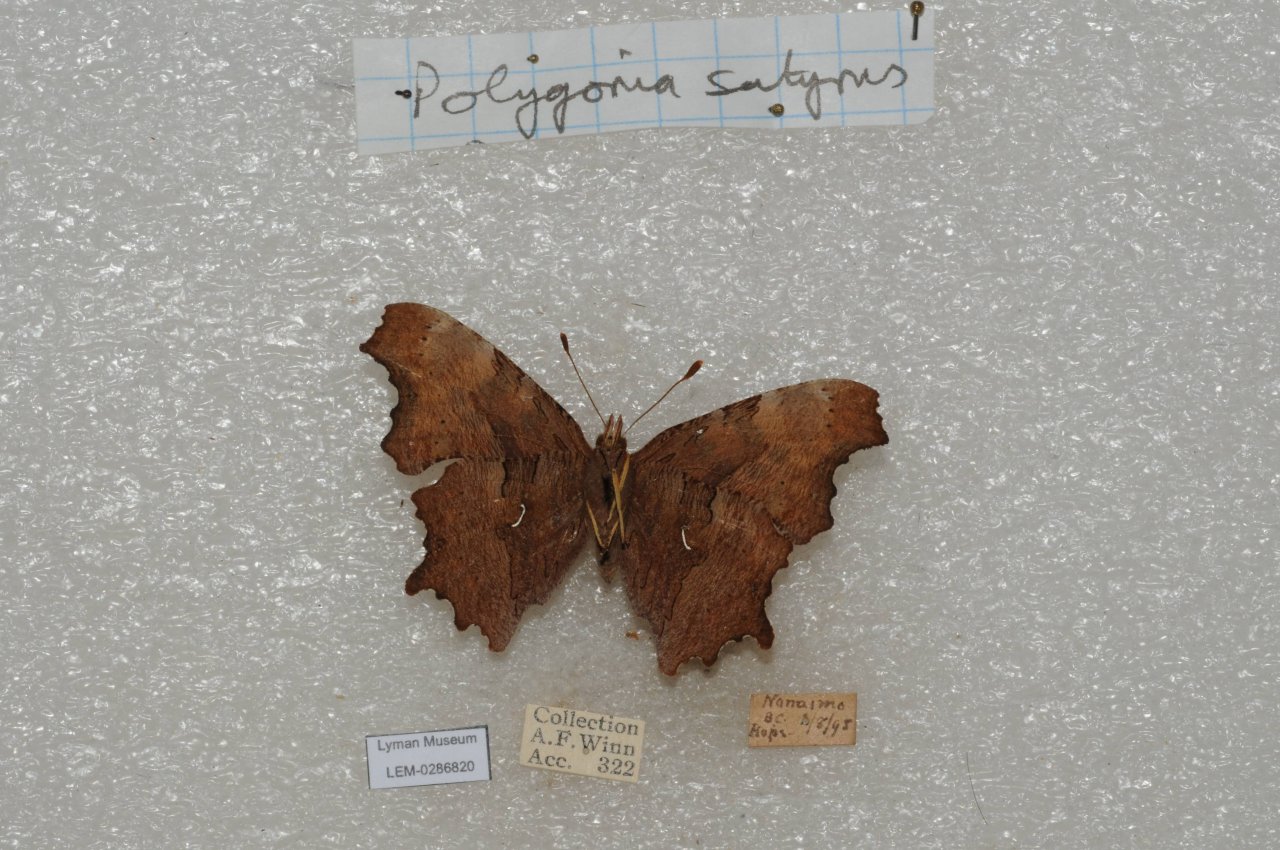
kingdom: Animalia
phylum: Arthropoda
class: Insecta
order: Lepidoptera
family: Nymphalidae
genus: Polygonia
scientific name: Polygonia satyrus
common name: Satyr Comma
